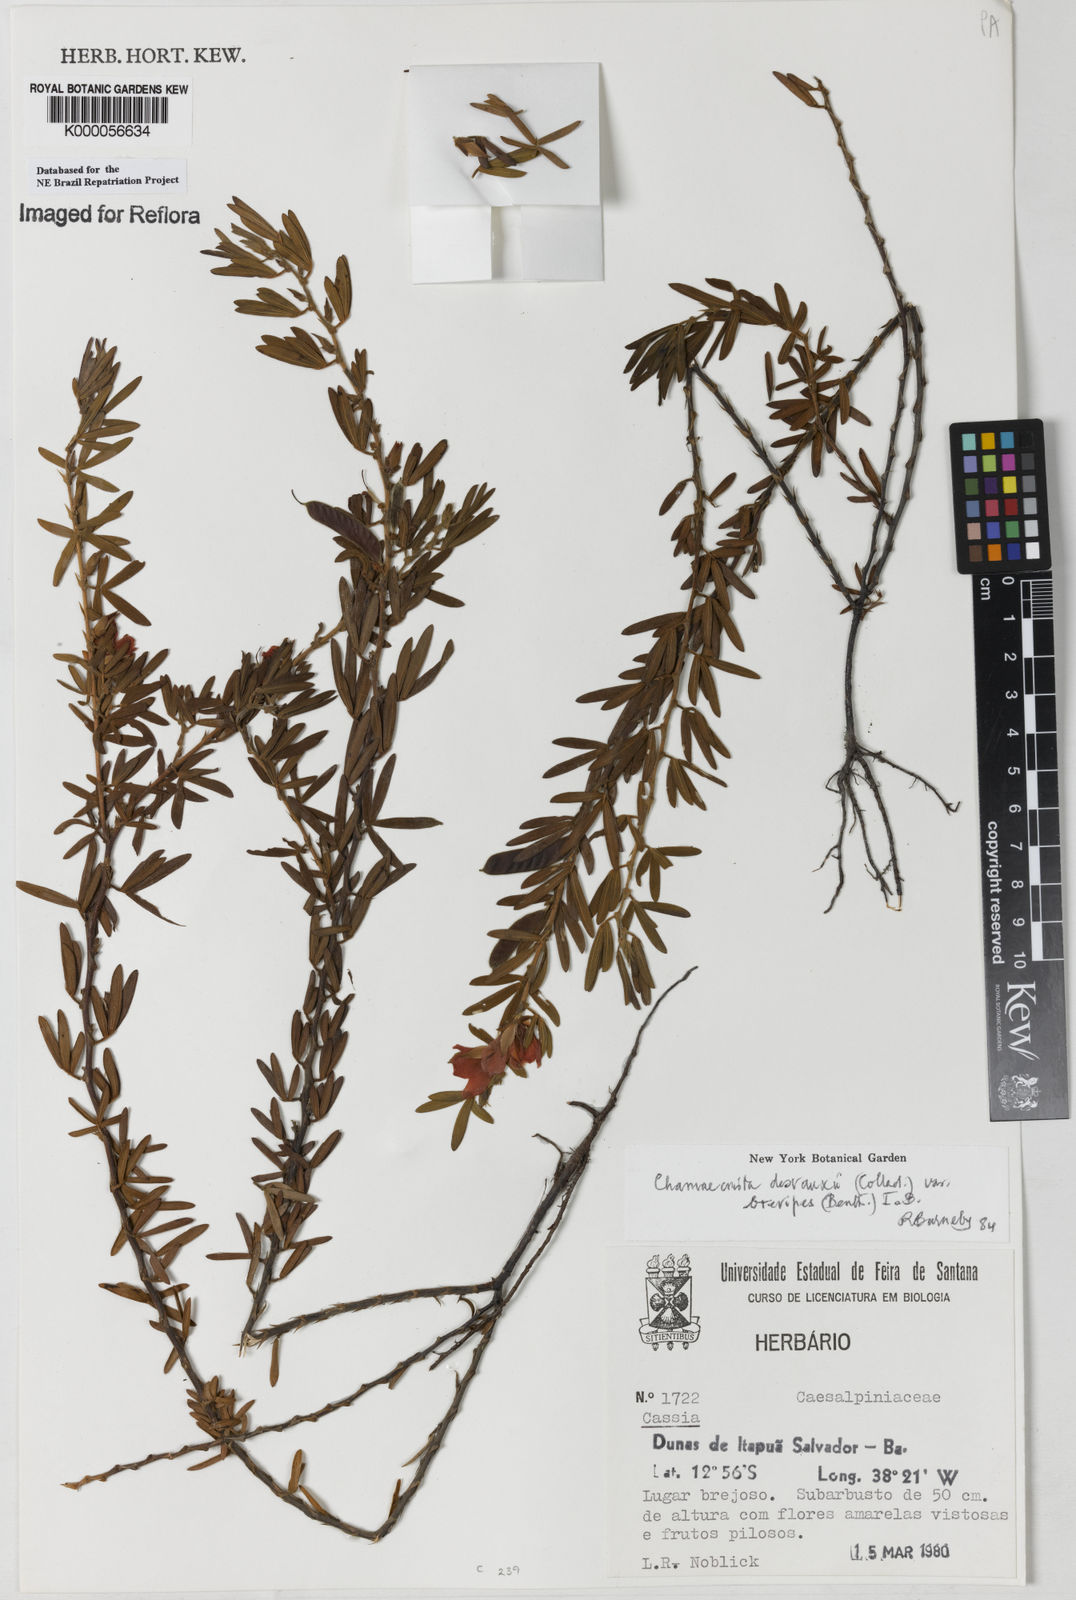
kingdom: Plantae
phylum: Tracheophyta
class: Magnoliopsida
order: Fabales
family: Fabaceae
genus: Chamaecrista
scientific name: Chamaecrista desvauxii
